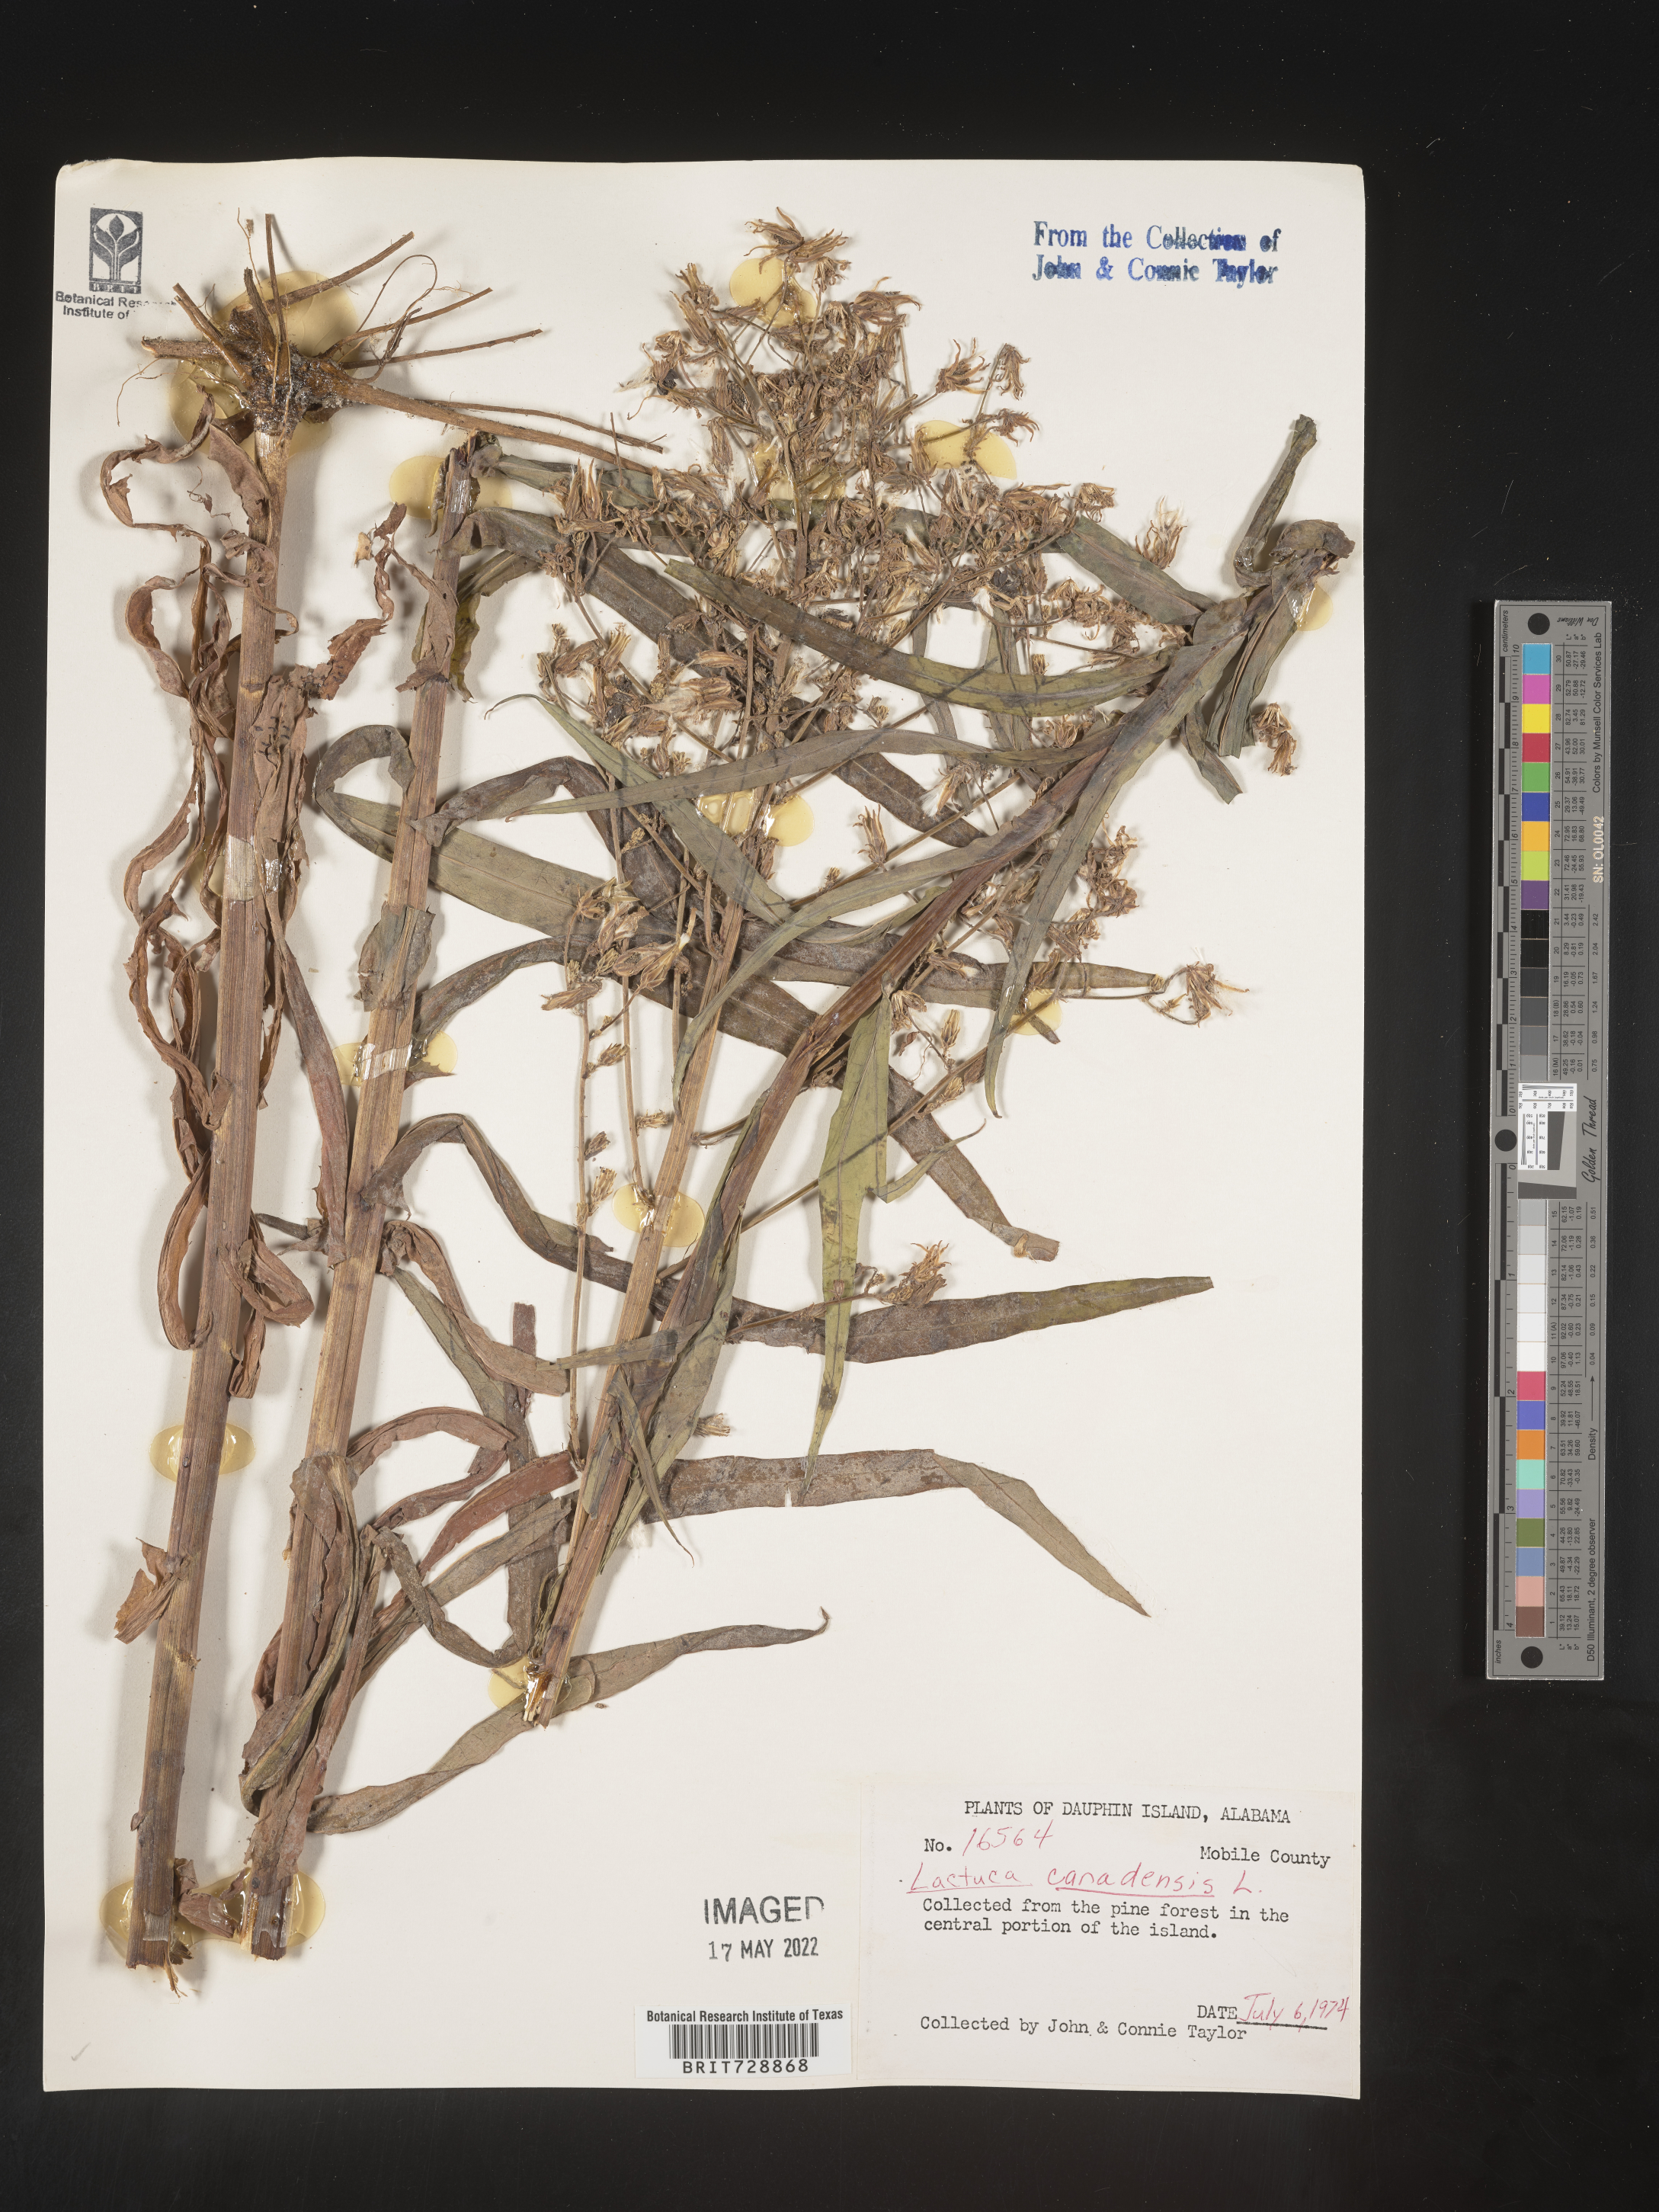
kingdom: Plantae
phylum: Tracheophyta
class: Magnoliopsida
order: Asterales
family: Asteraceae
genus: Lactuca
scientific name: Lactuca canadensis
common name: Canada lettuce
